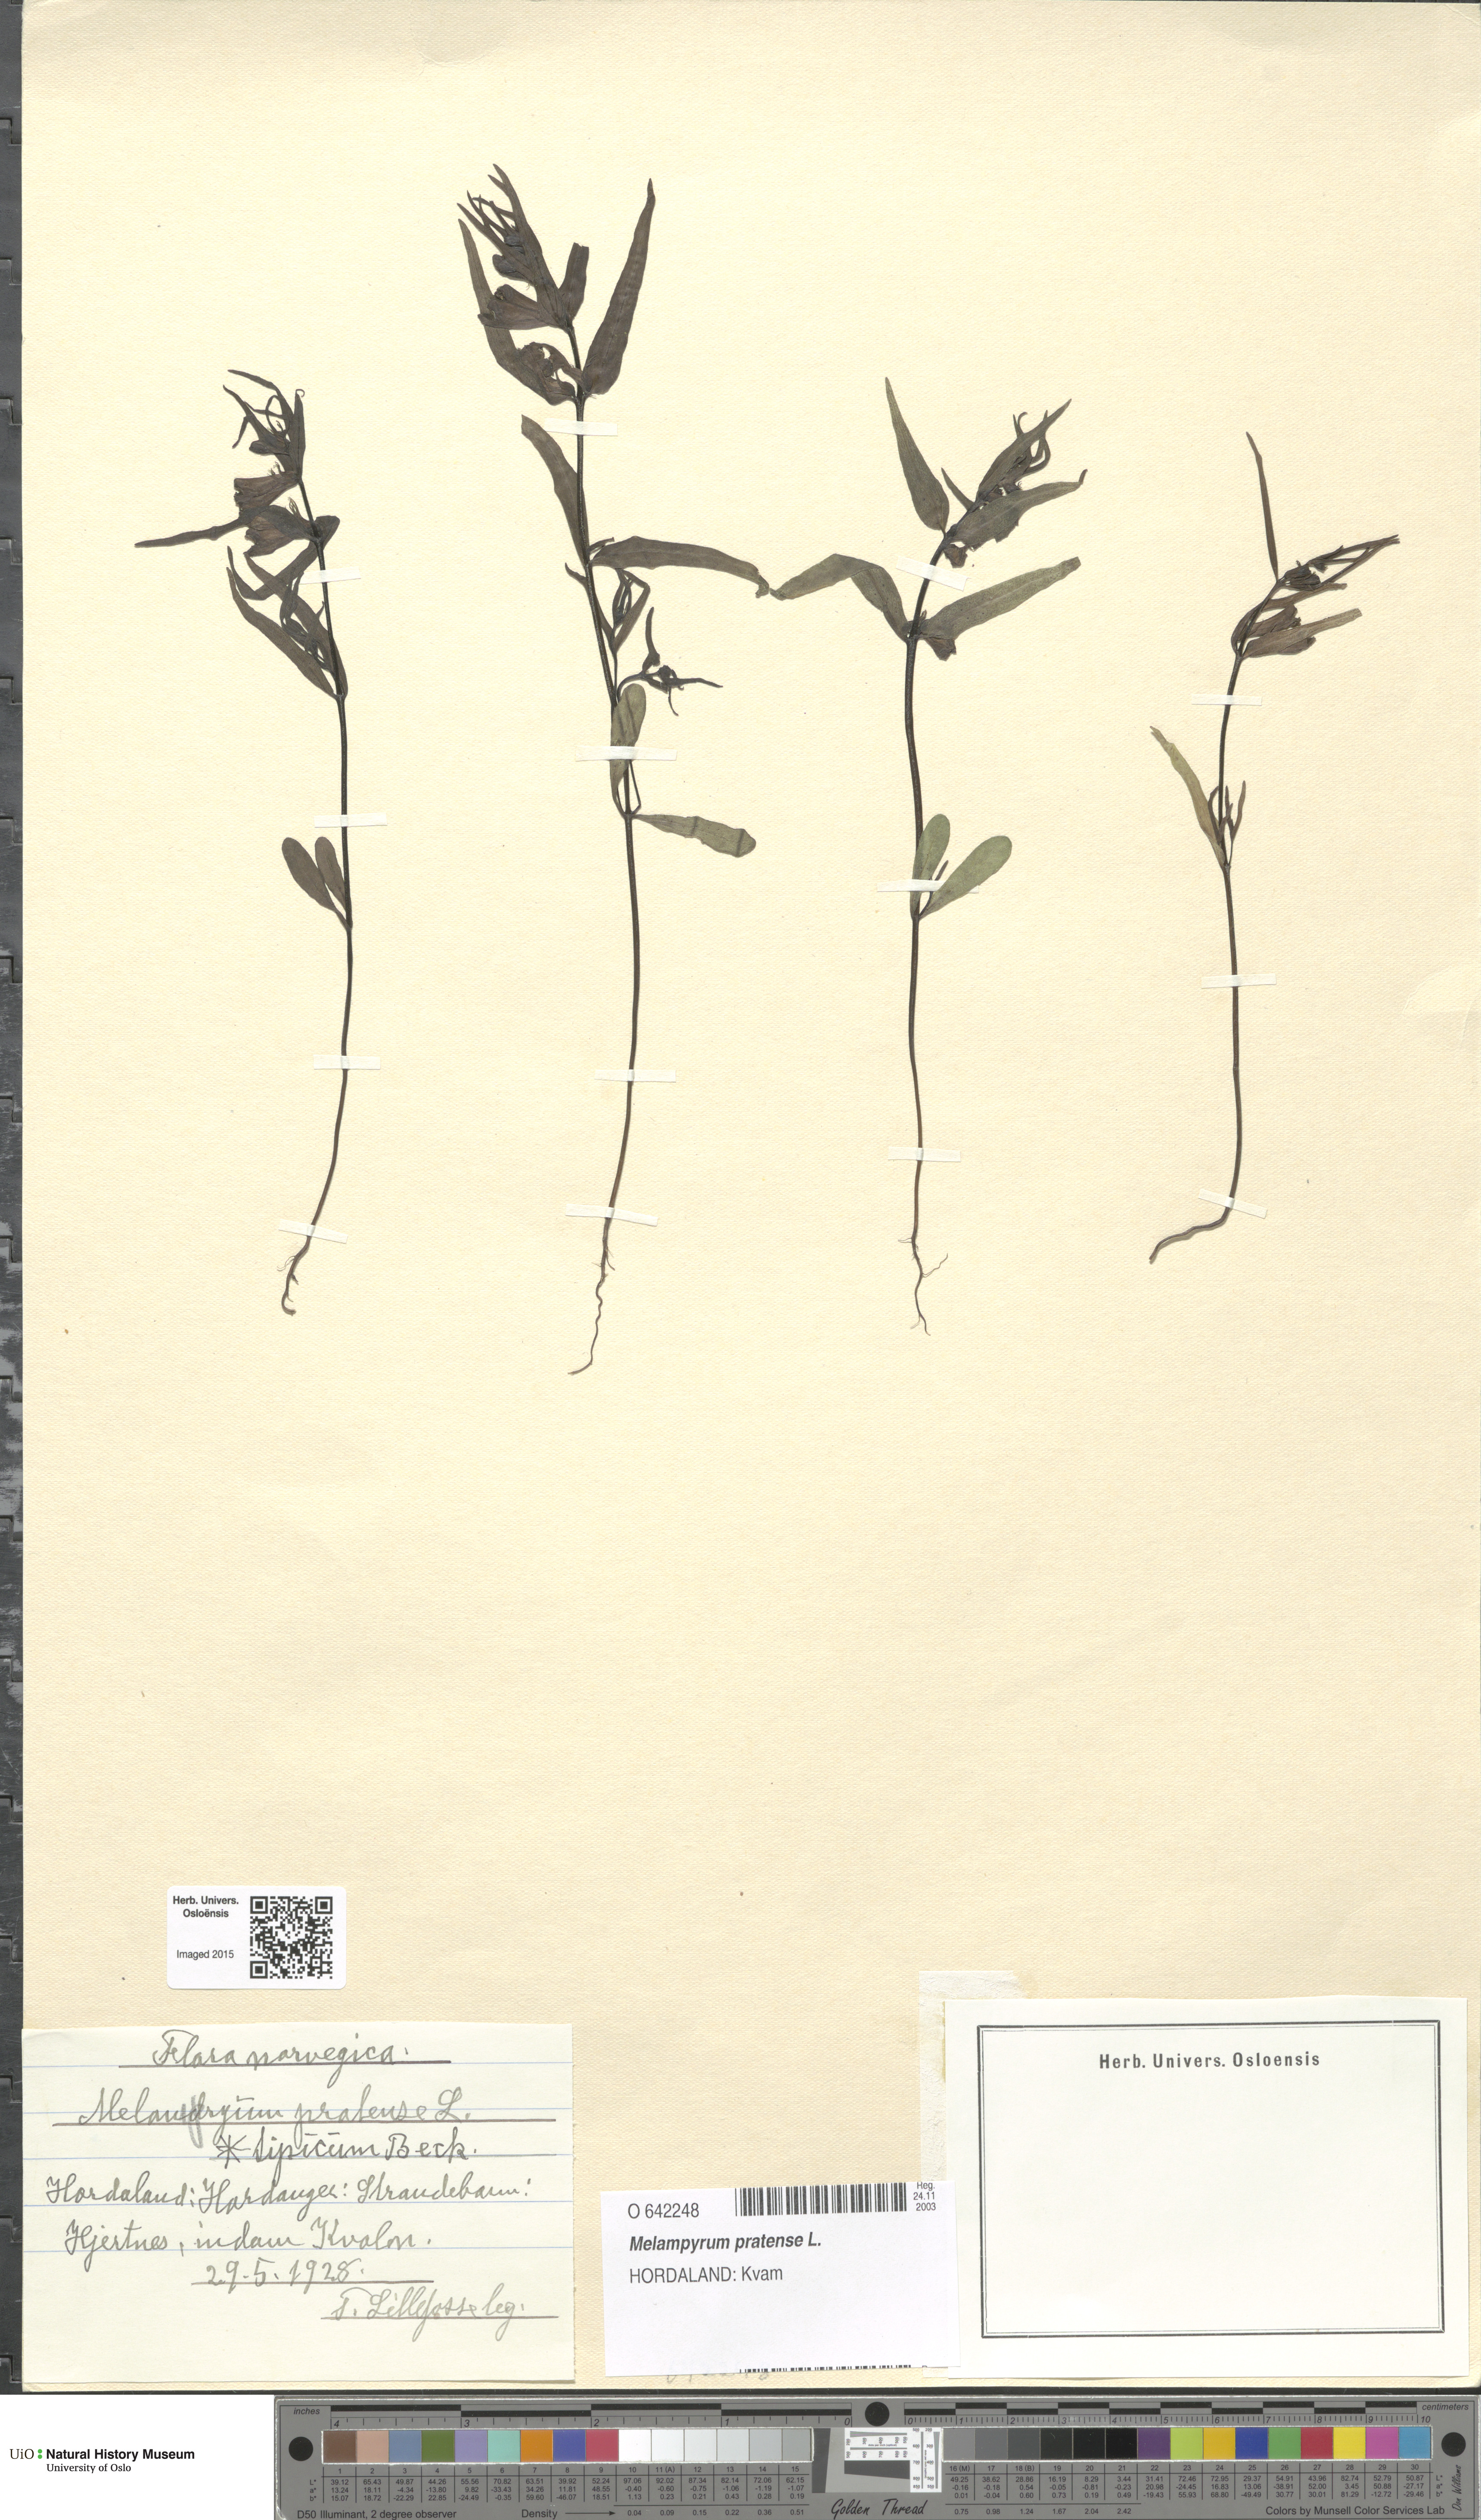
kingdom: Plantae
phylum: Tracheophyta
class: Magnoliopsida
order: Lamiales
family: Orobanchaceae
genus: Melampyrum
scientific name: Melampyrum pratense
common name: Common cow-wheat
